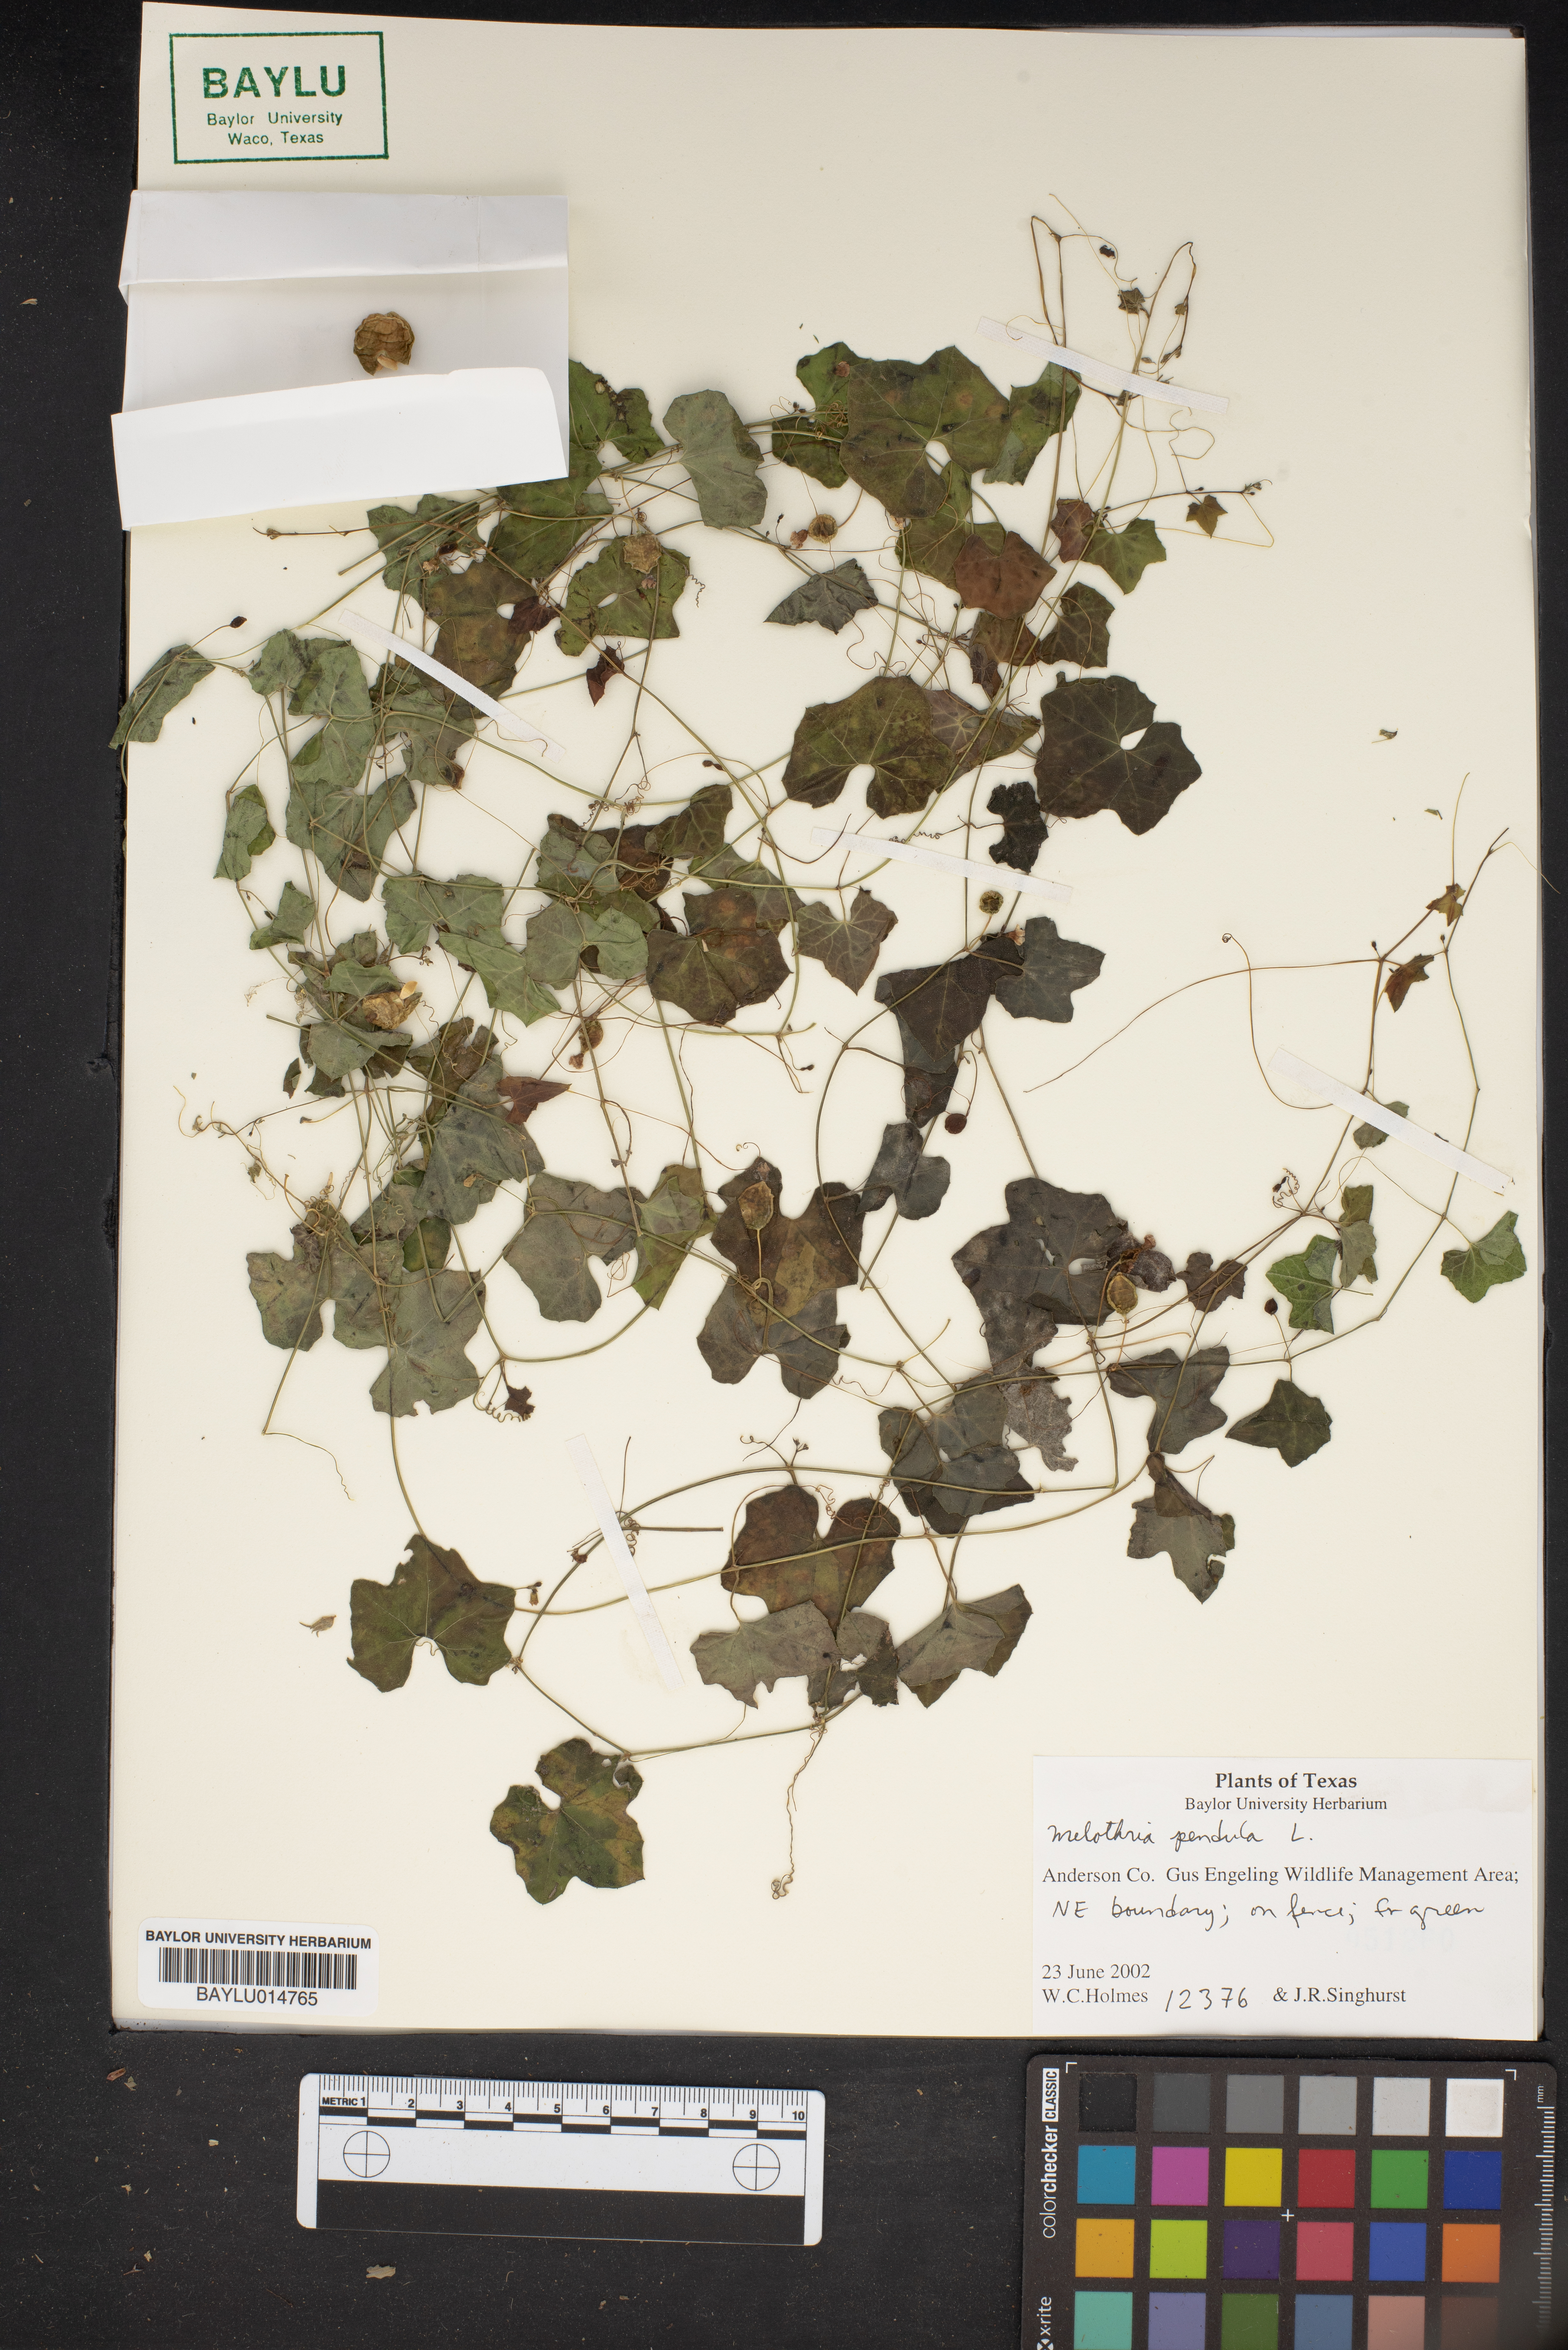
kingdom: Plantae
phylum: Tracheophyta
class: Magnoliopsida
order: Cucurbitales
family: Cucurbitaceae
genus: Melothria
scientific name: Melothria pendula
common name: Creeping-cucumber
